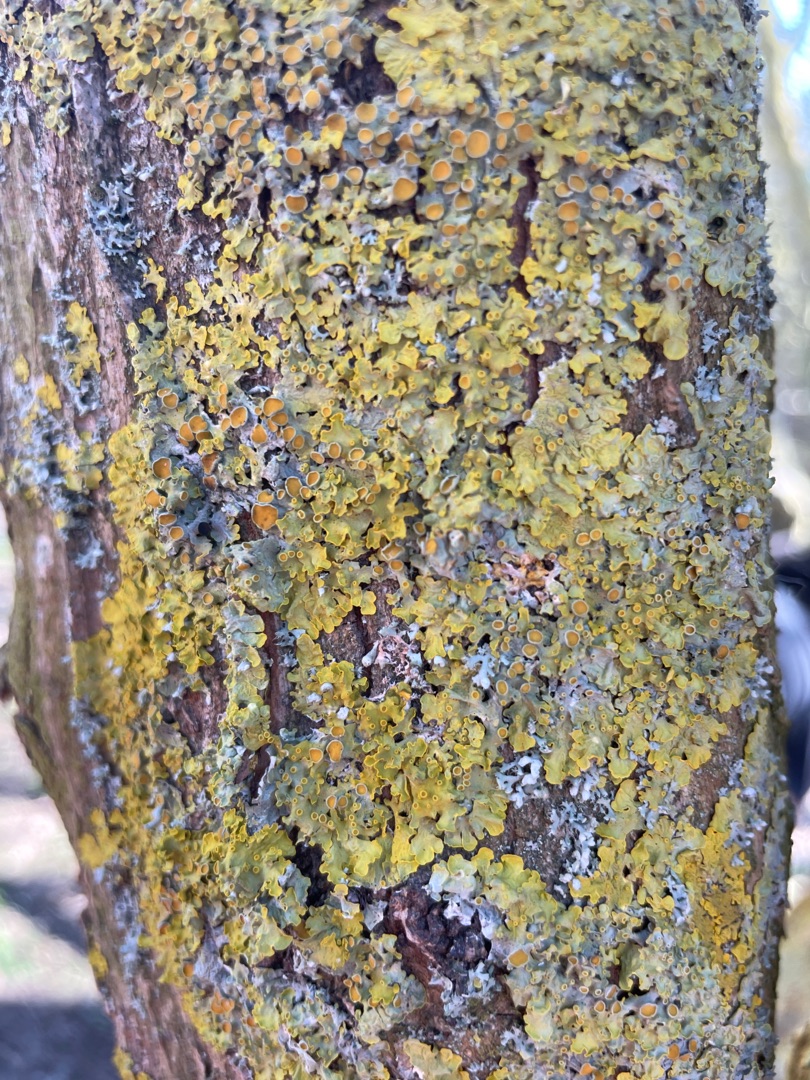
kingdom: Fungi
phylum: Ascomycota
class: Lecanoromycetes
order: Teloschistales
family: Teloschistaceae
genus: Xanthoria
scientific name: Xanthoria parietina
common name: Almindelig væggelav
